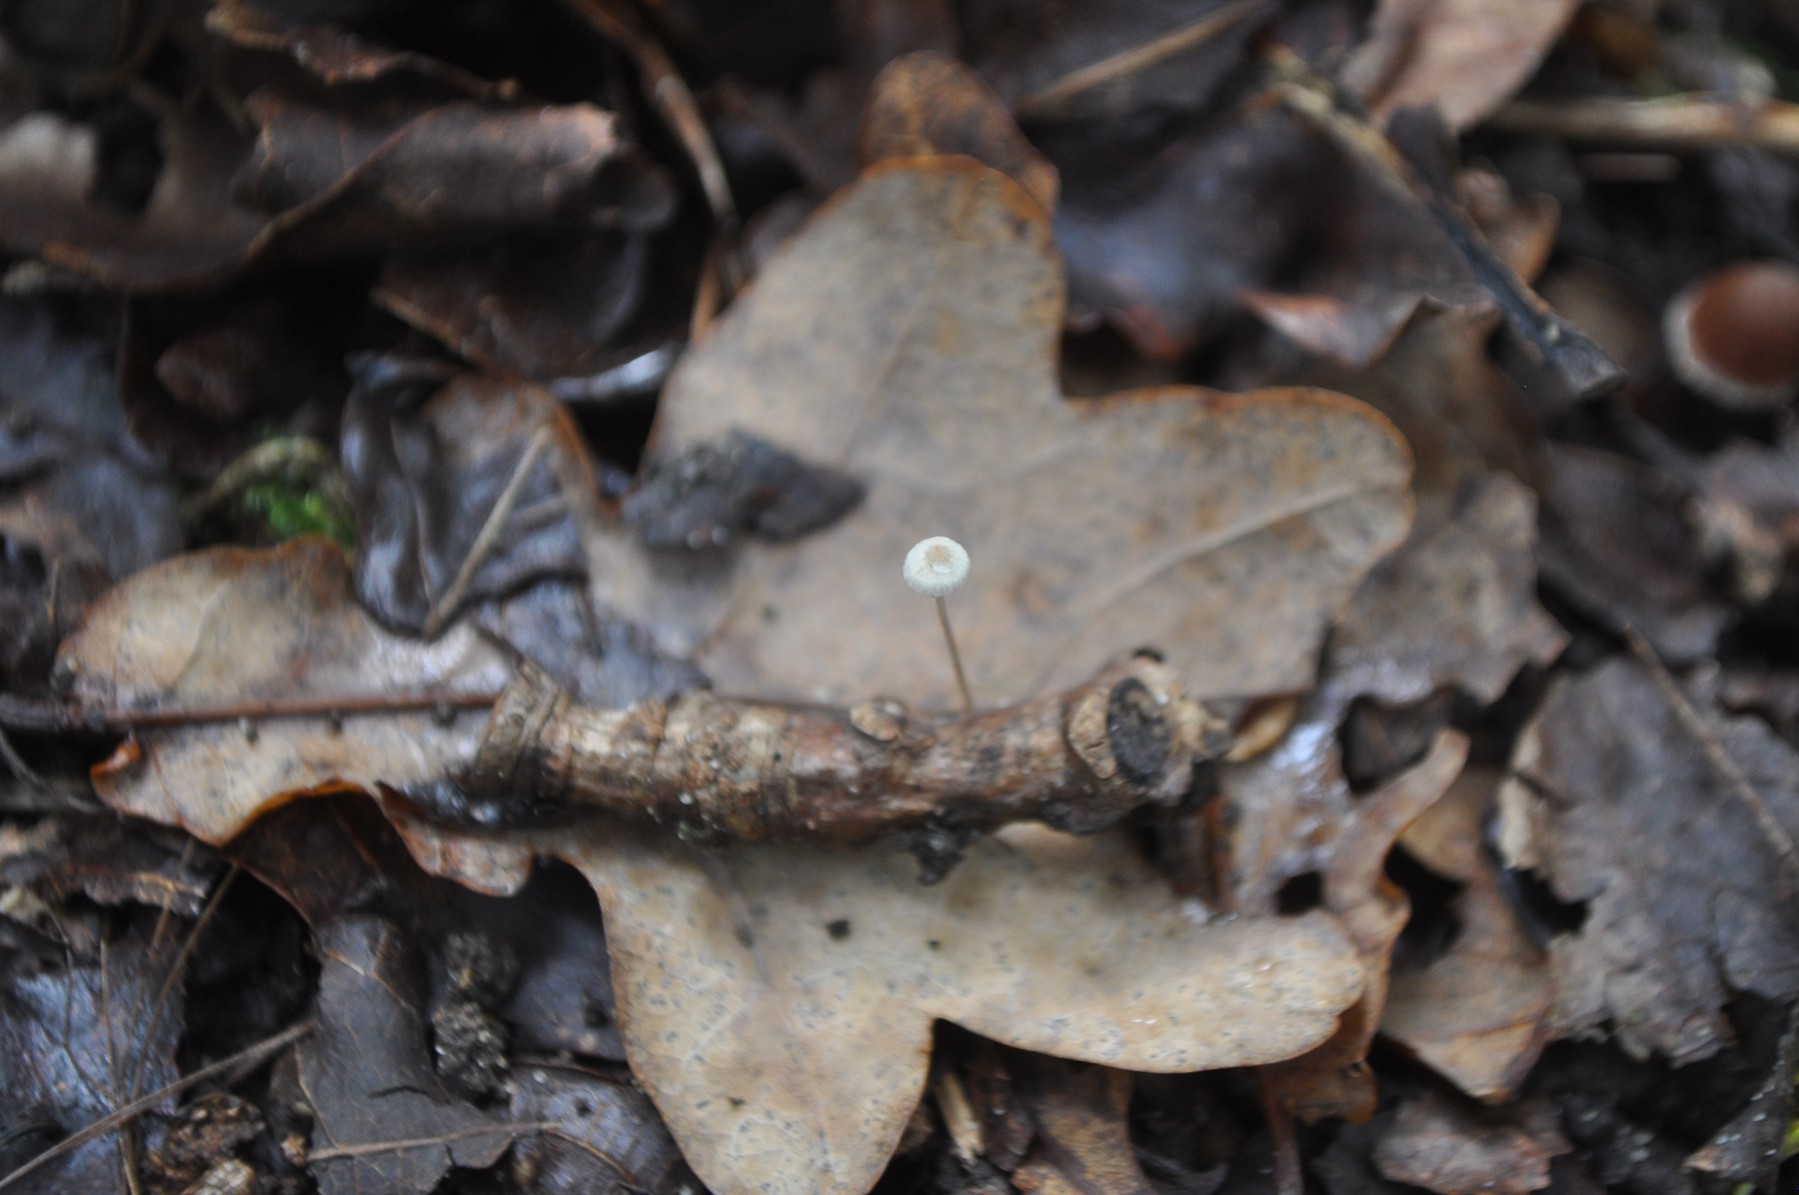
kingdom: Fungi
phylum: Basidiomycota
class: Agaricomycetes
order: Agaricales
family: Mycenaceae
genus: Mycena
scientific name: Mycena vitilis
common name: blankstokket huesvamp
